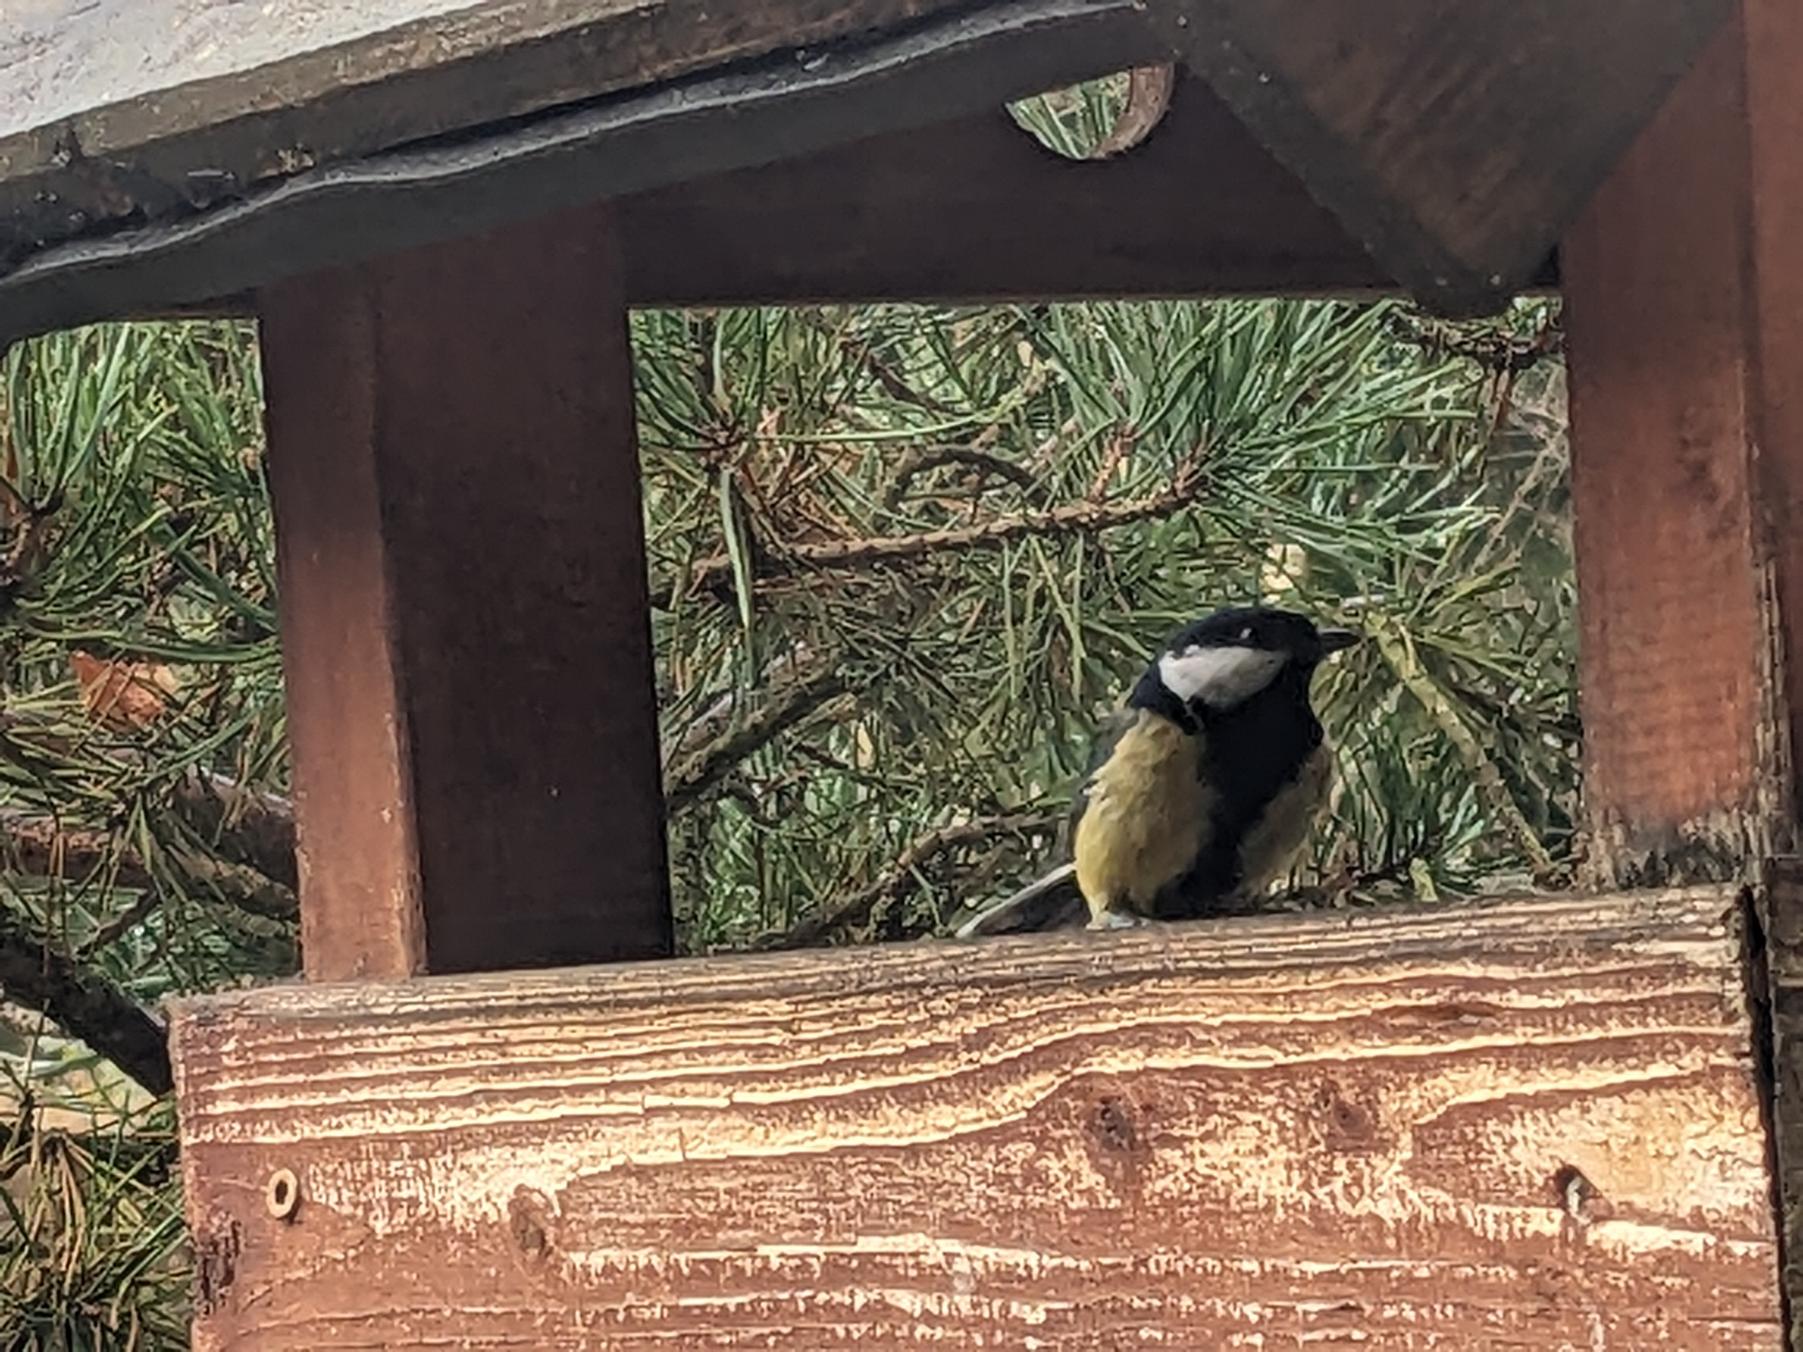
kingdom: Animalia
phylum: Chordata
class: Aves
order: Passeriformes
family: Paridae
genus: Parus
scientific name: Parus major
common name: Musvit
